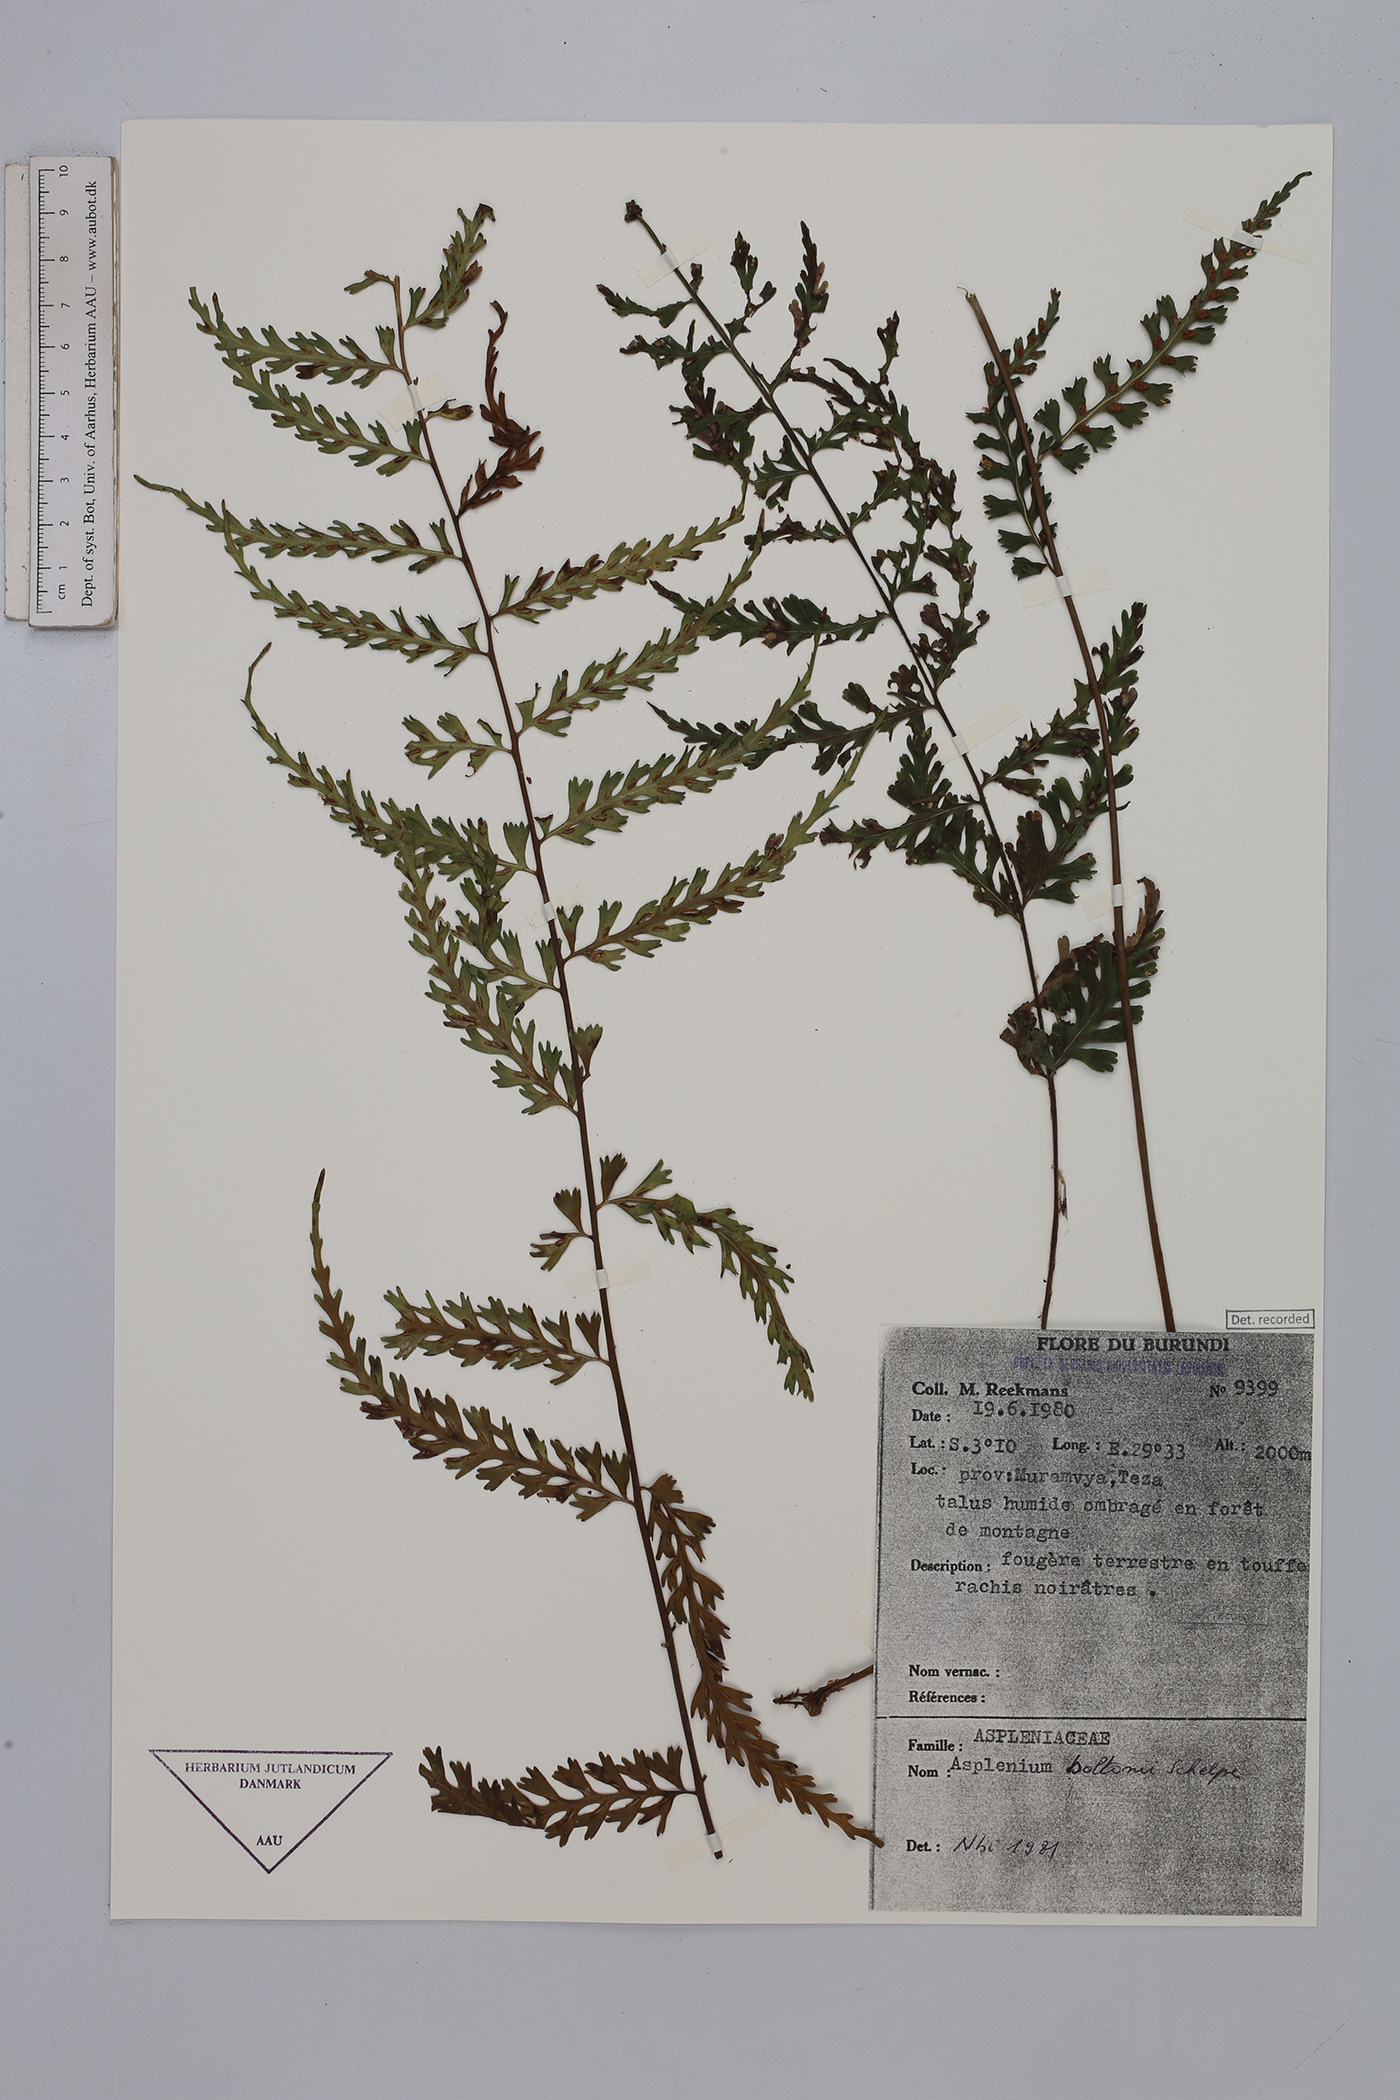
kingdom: Plantae
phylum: Tracheophyta
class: Polypodiopsida
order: Polypodiales
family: Aspleniaceae
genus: Asplenium
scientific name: Asplenium boltonii
